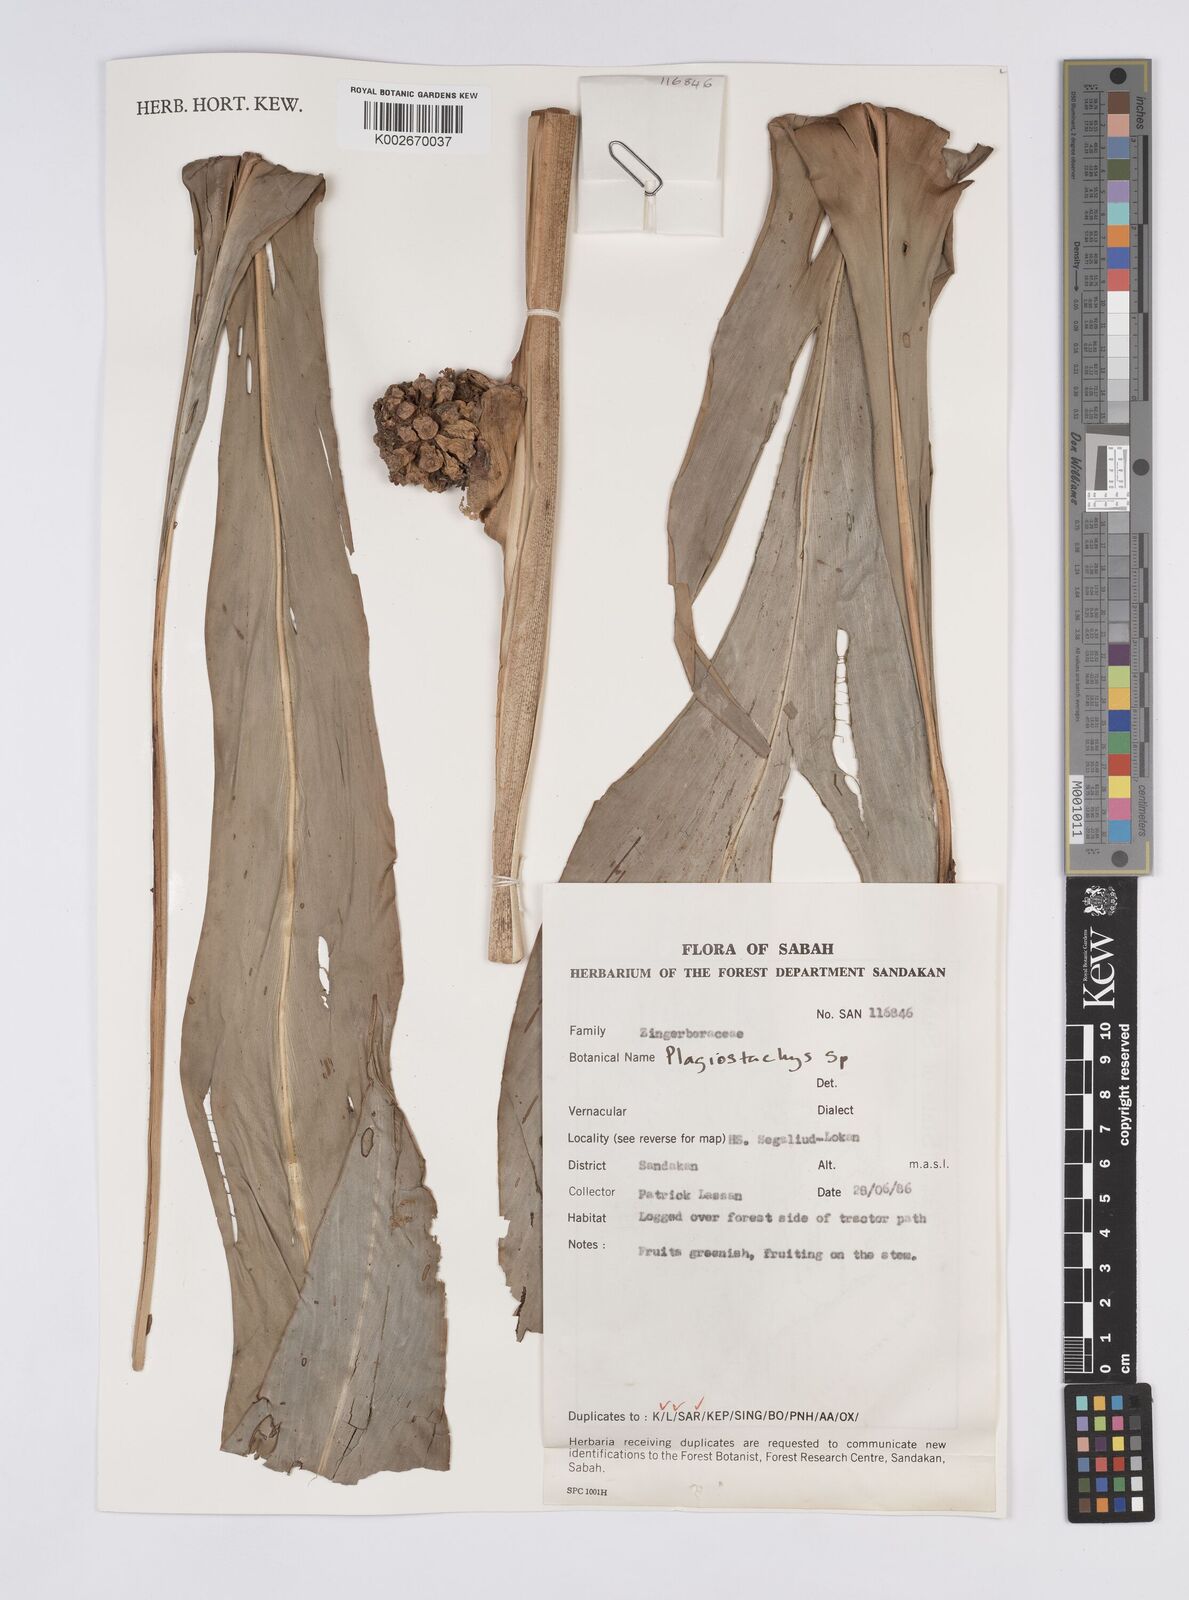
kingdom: Plantae
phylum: Tracheophyta
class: Liliopsida
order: Zingiberales
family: Zingiberaceae
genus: Plagiostachys
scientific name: Plagiostachys
